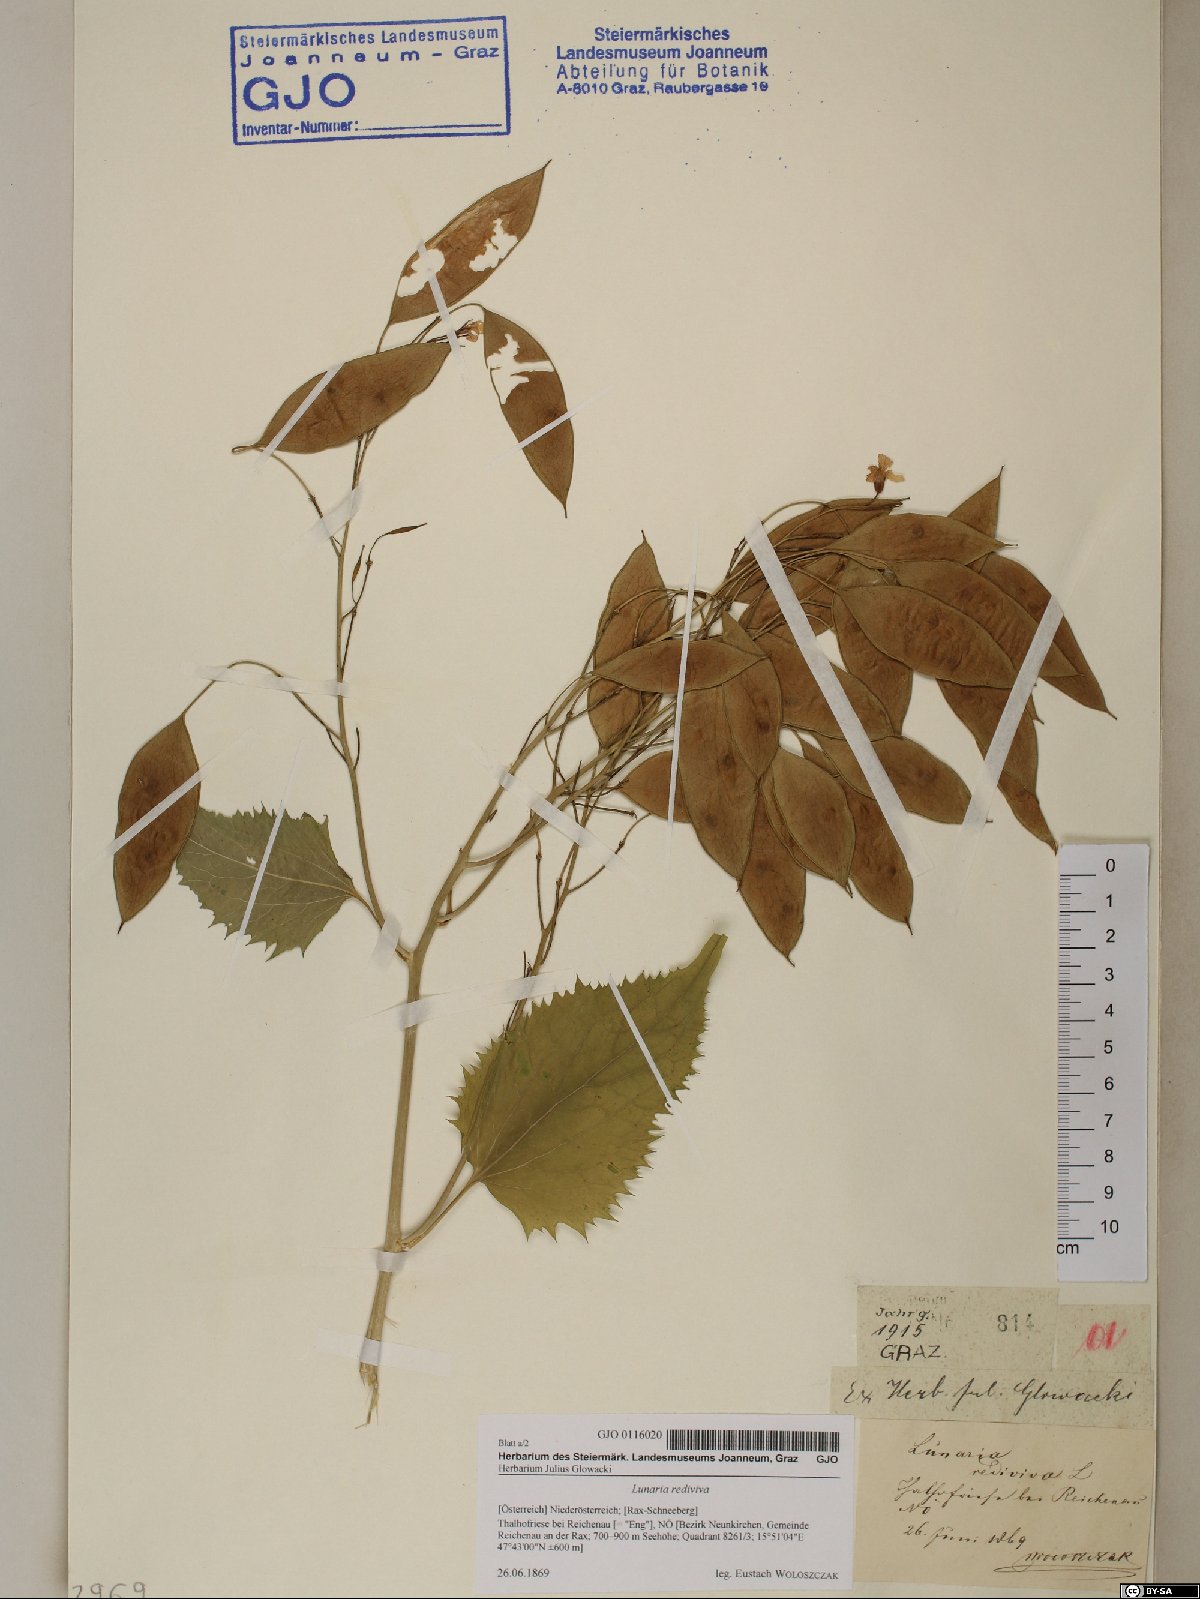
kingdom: Plantae
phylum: Tracheophyta
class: Magnoliopsida
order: Brassicales
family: Brassicaceae
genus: Lunaria
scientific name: Lunaria rediviva
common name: Perennial honesty
